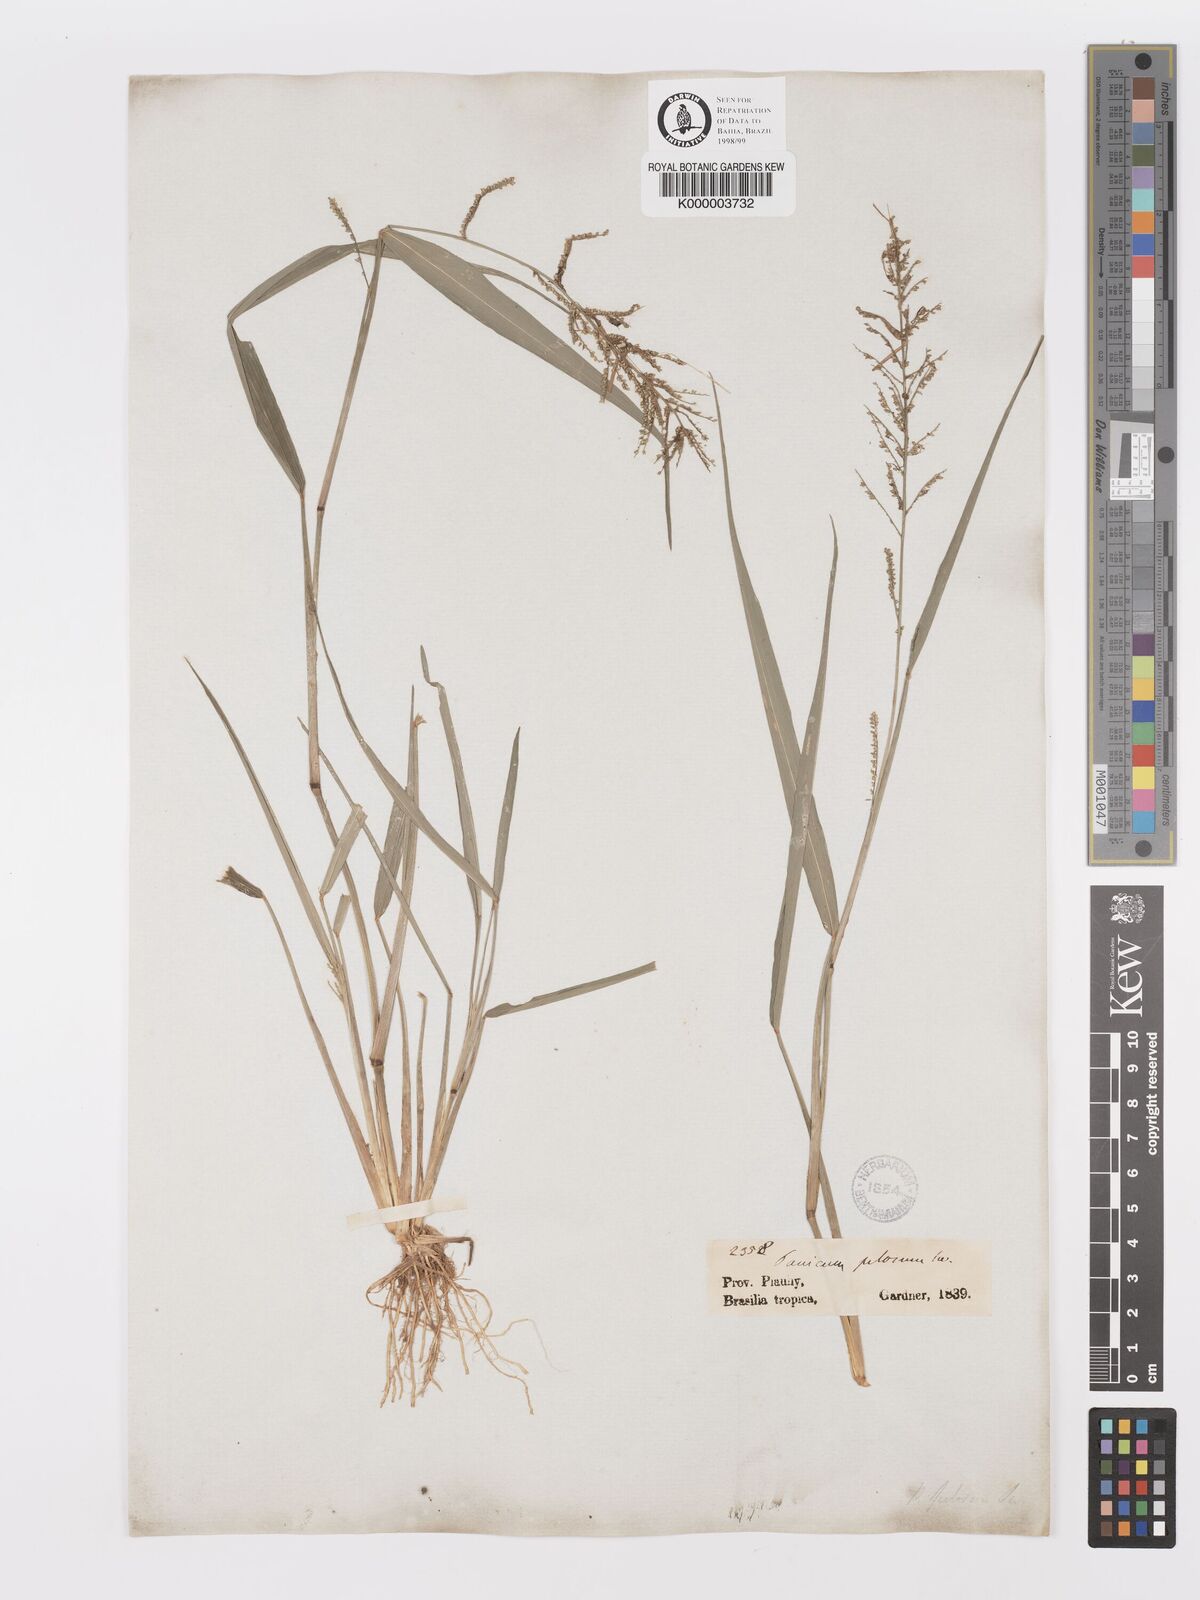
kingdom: Plantae
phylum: Tracheophyta
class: Liliopsida
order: Poales
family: Poaceae
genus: Rugoloa
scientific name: Rugoloa pilosa
